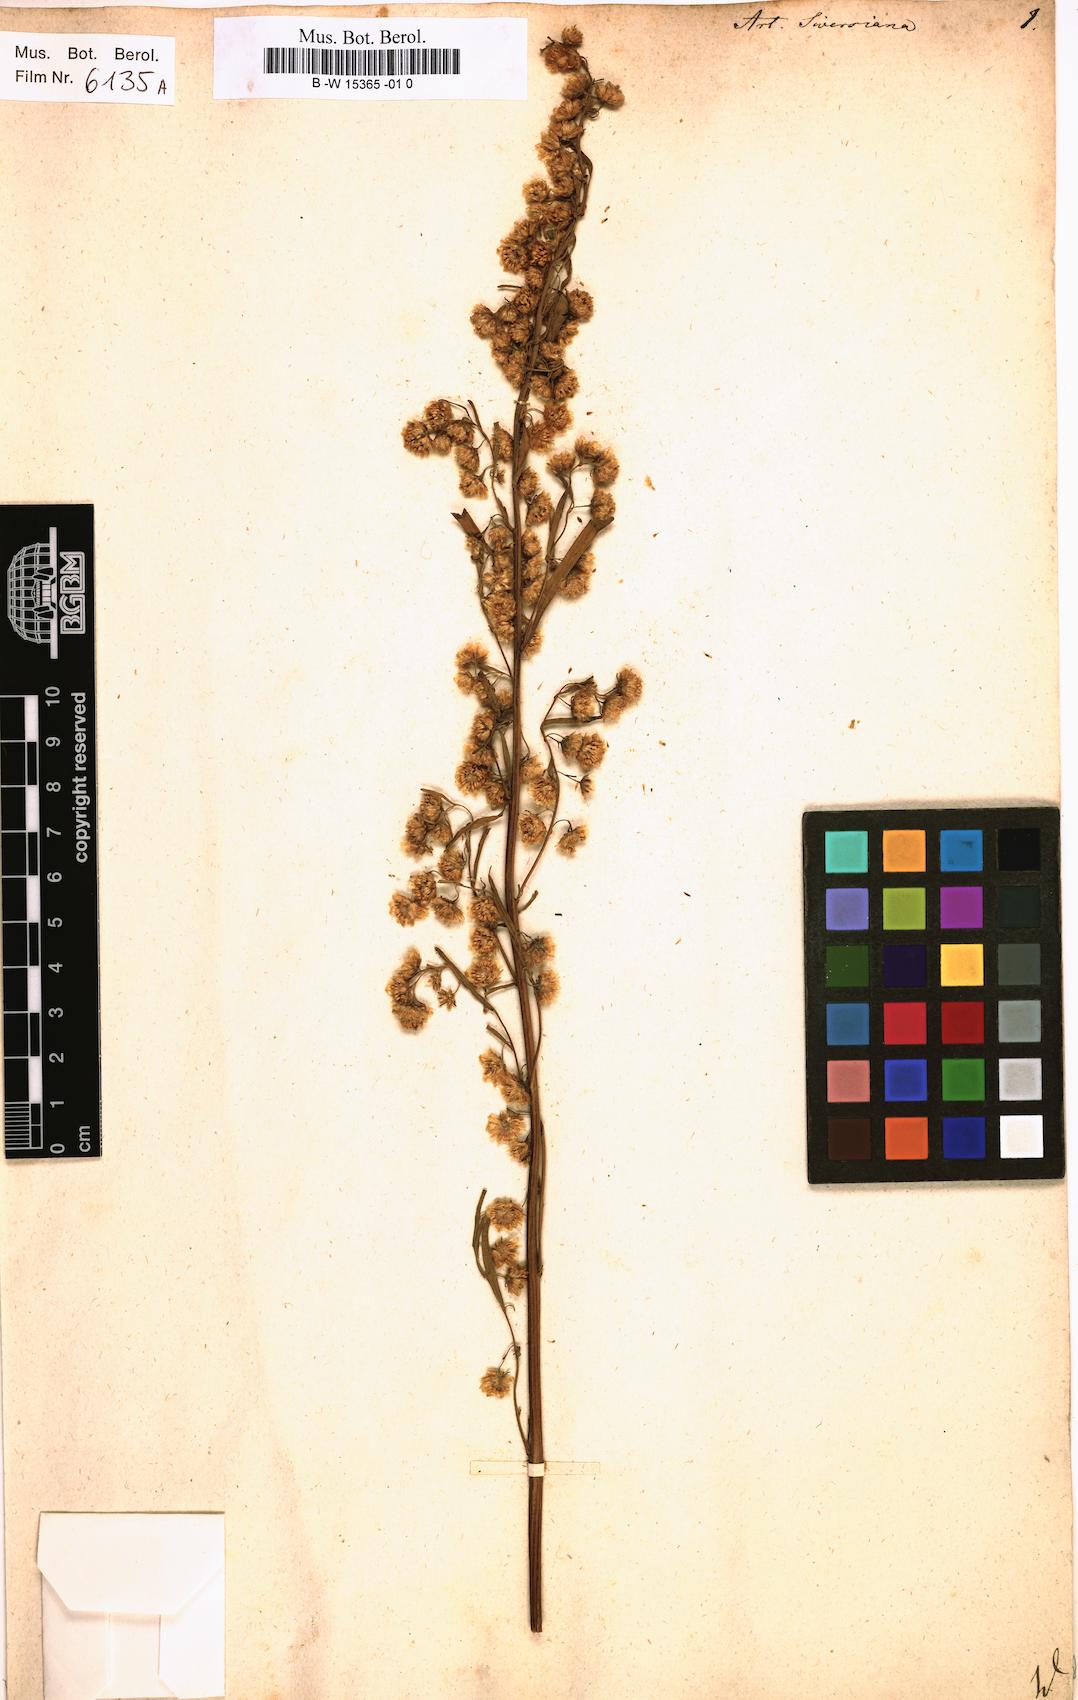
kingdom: Plantae
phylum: Tracheophyta
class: Magnoliopsida
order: Asterales
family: Asteraceae
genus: Artemisia
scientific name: Artemisia sieversiana
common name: Sieversian wormwood
